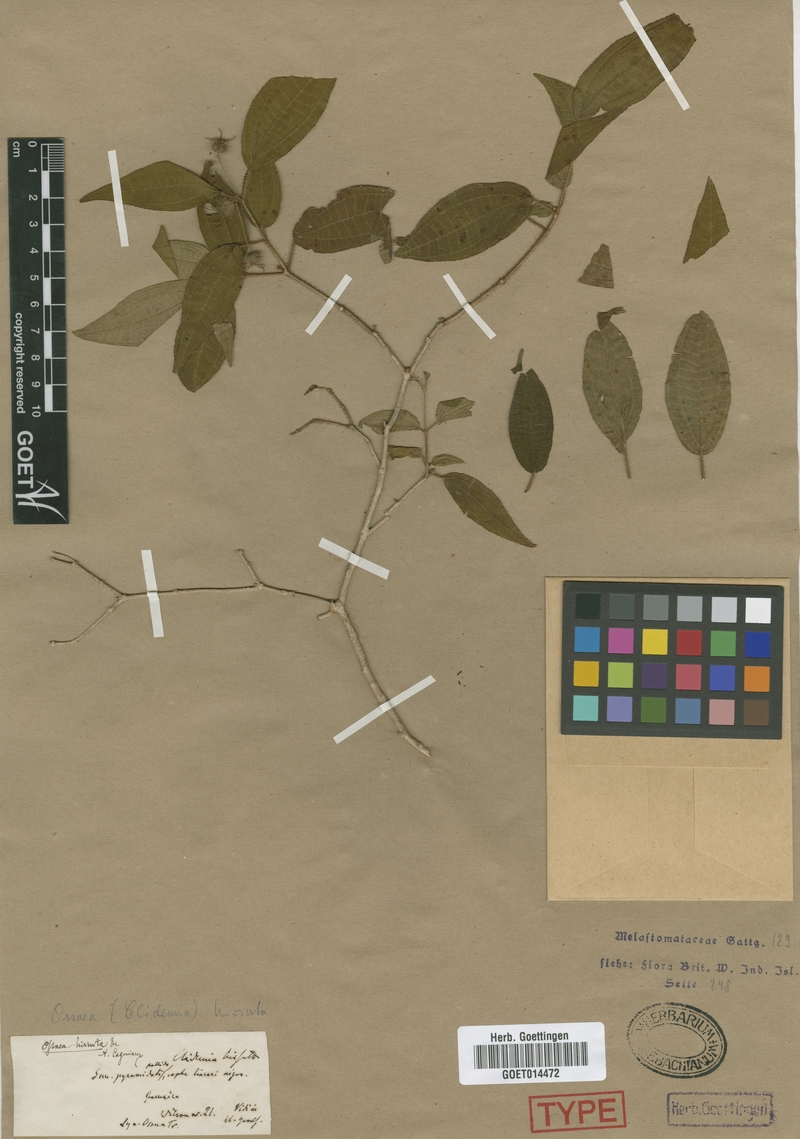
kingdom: Plantae
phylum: Tracheophyta
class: Magnoliopsida
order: Myrtales
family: Melastomataceae
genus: Miconia
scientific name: Miconia hirsuta
